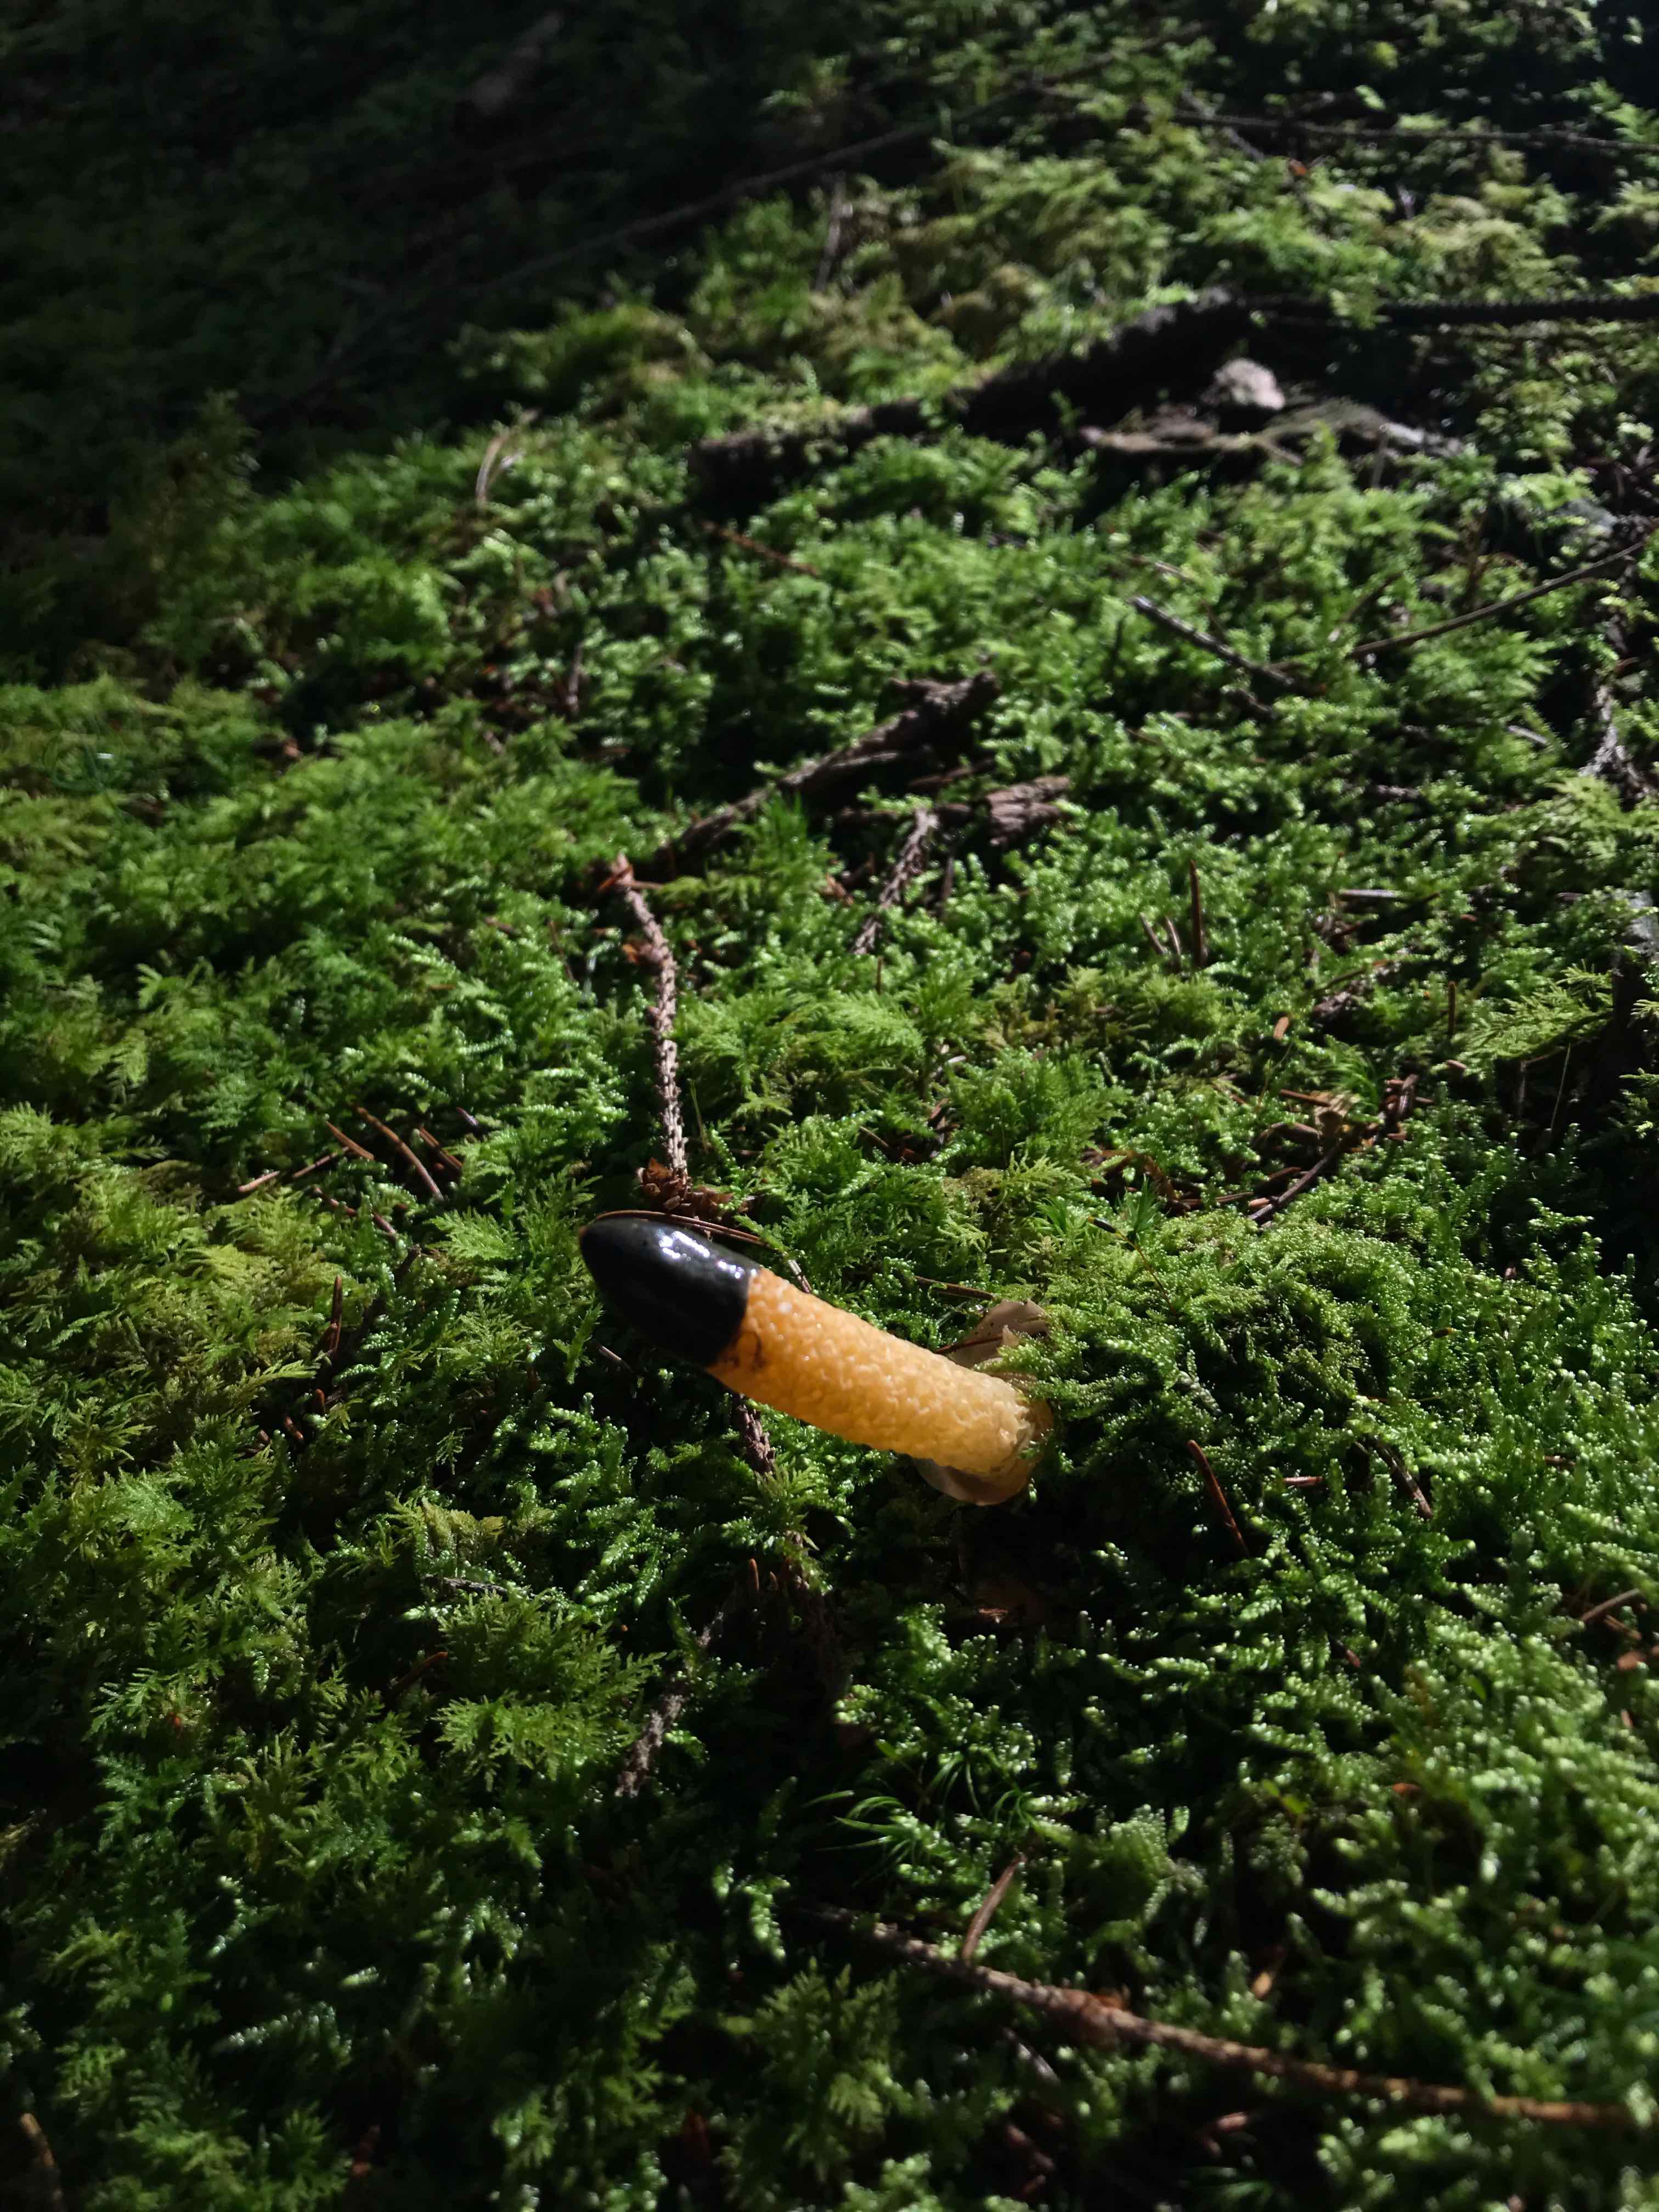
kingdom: Fungi
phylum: Basidiomycota
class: Agaricomycetes
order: Phallales
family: Phallaceae
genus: Mutinus
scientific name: Mutinus caninus
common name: hunde-stinksvamp
